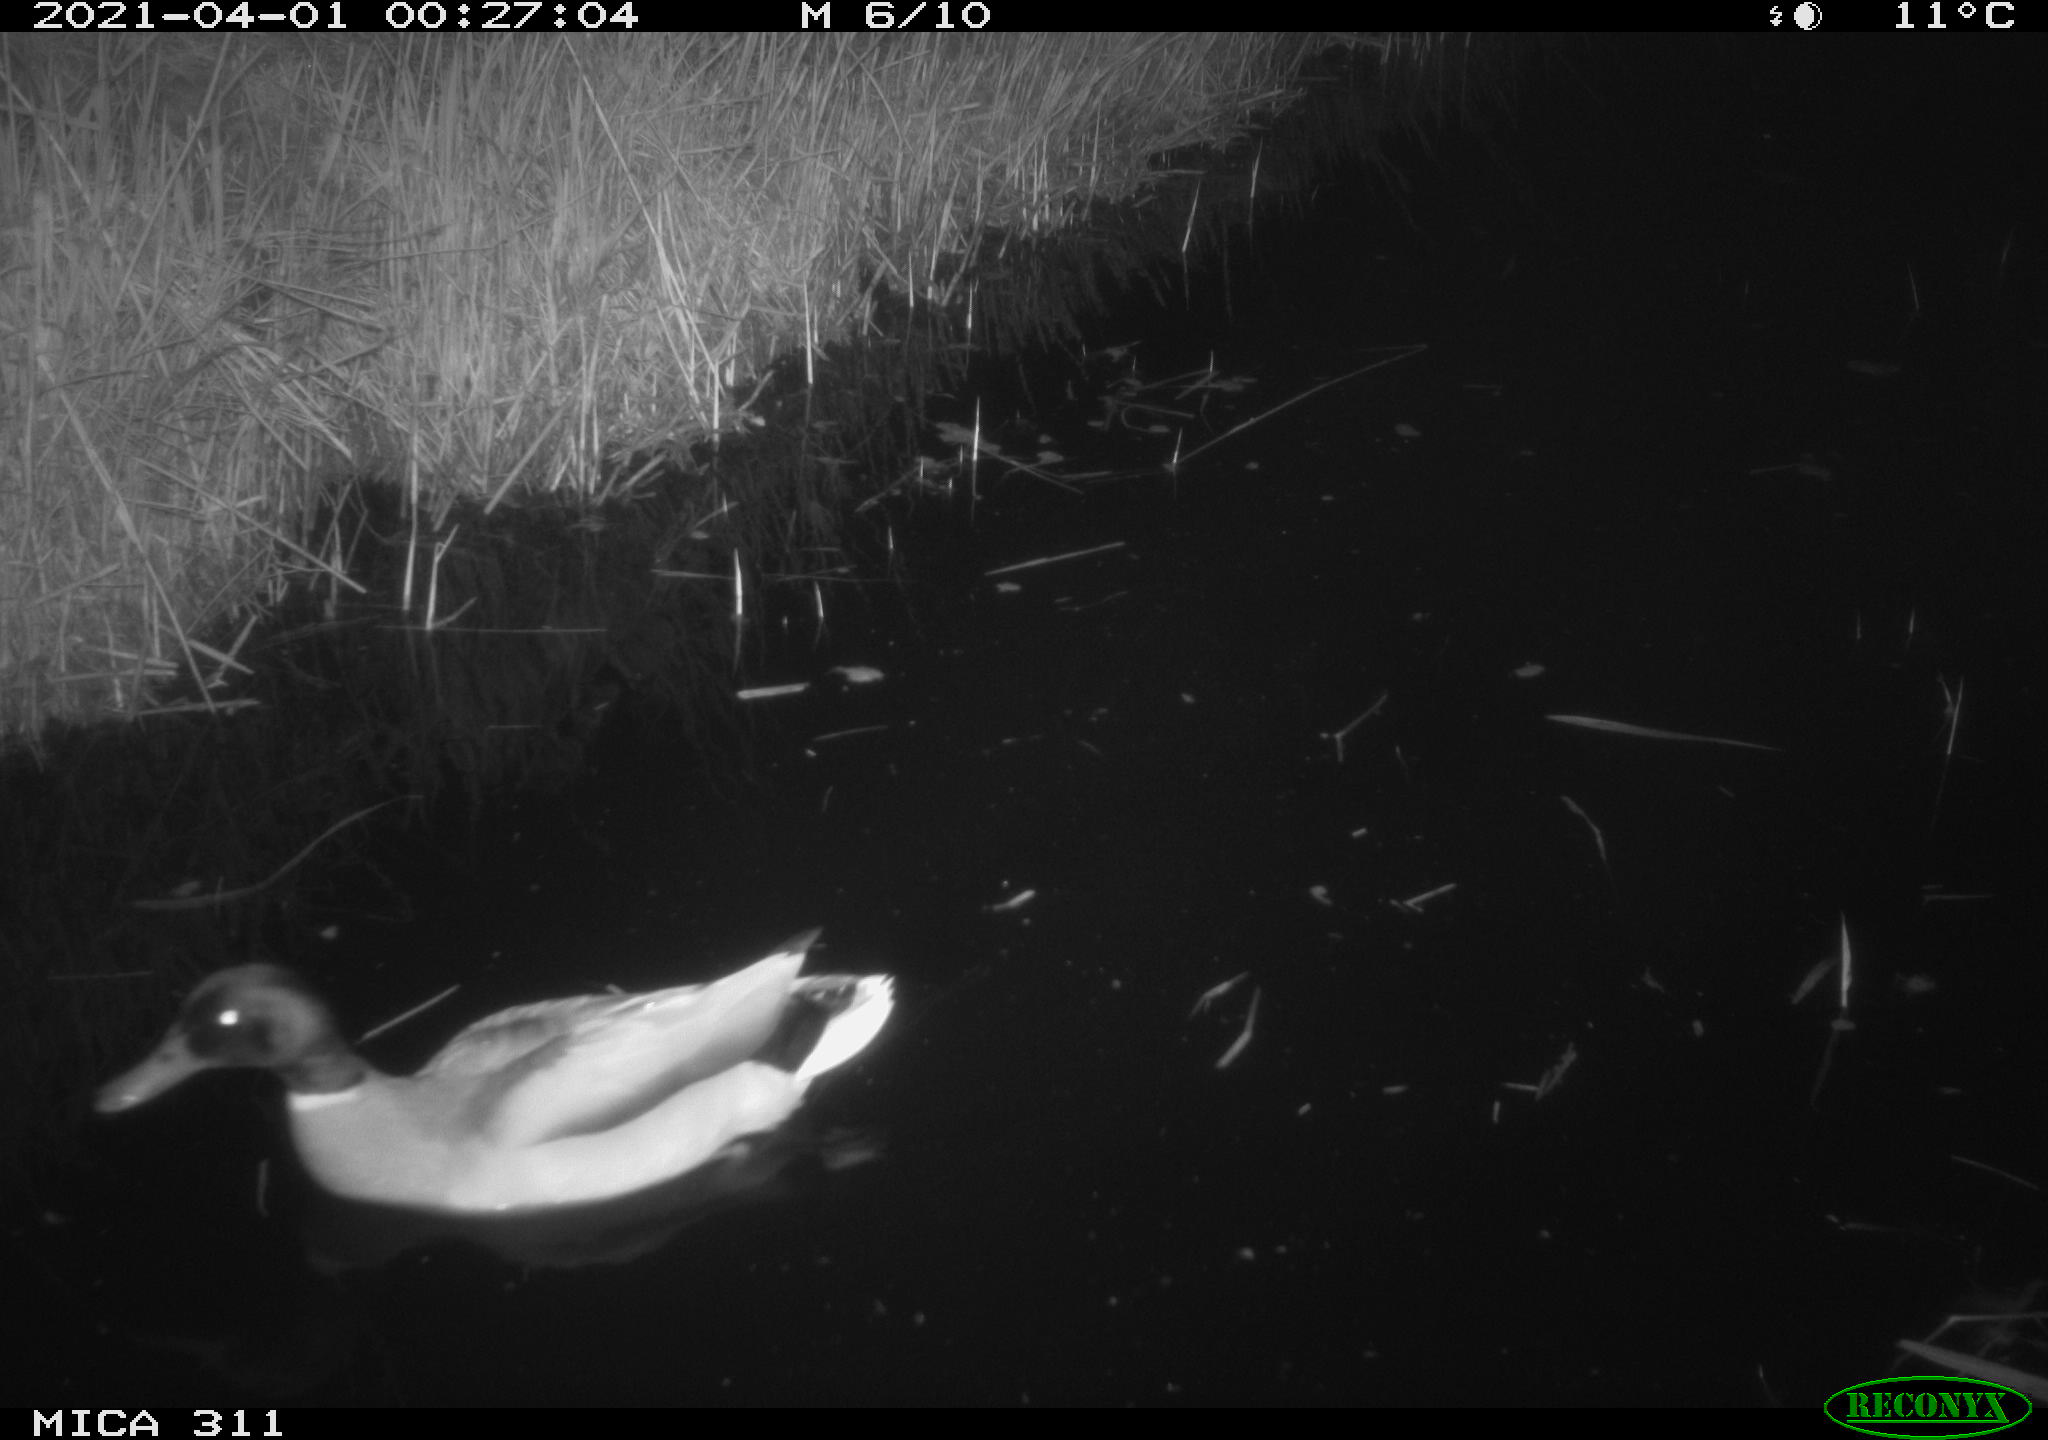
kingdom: Animalia
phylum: Chordata
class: Aves
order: Anseriformes
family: Anatidae
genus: Anas
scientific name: Anas
